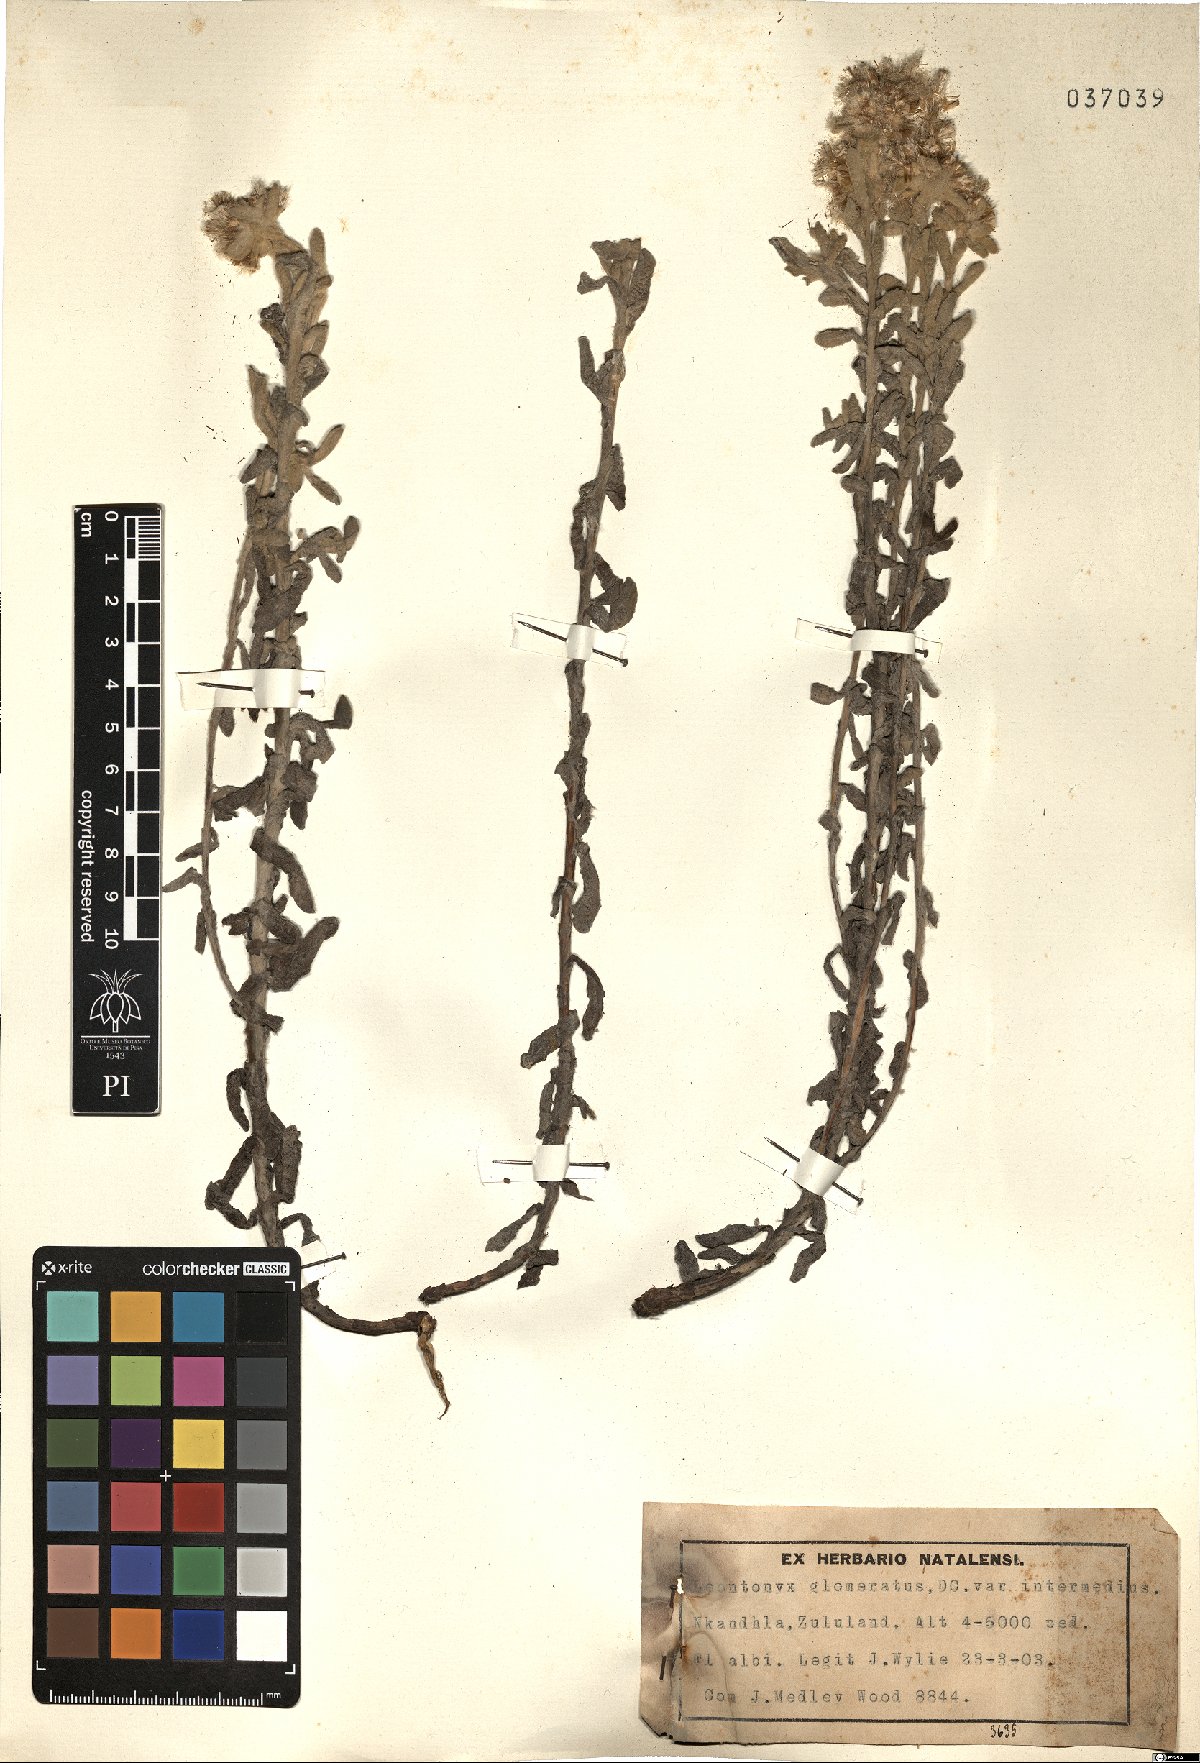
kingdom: Plantae
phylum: Tracheophyta
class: Magnoliopsida
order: Asterales
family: Asteraceae
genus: Helichrysum
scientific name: Helichrysum tinctum
